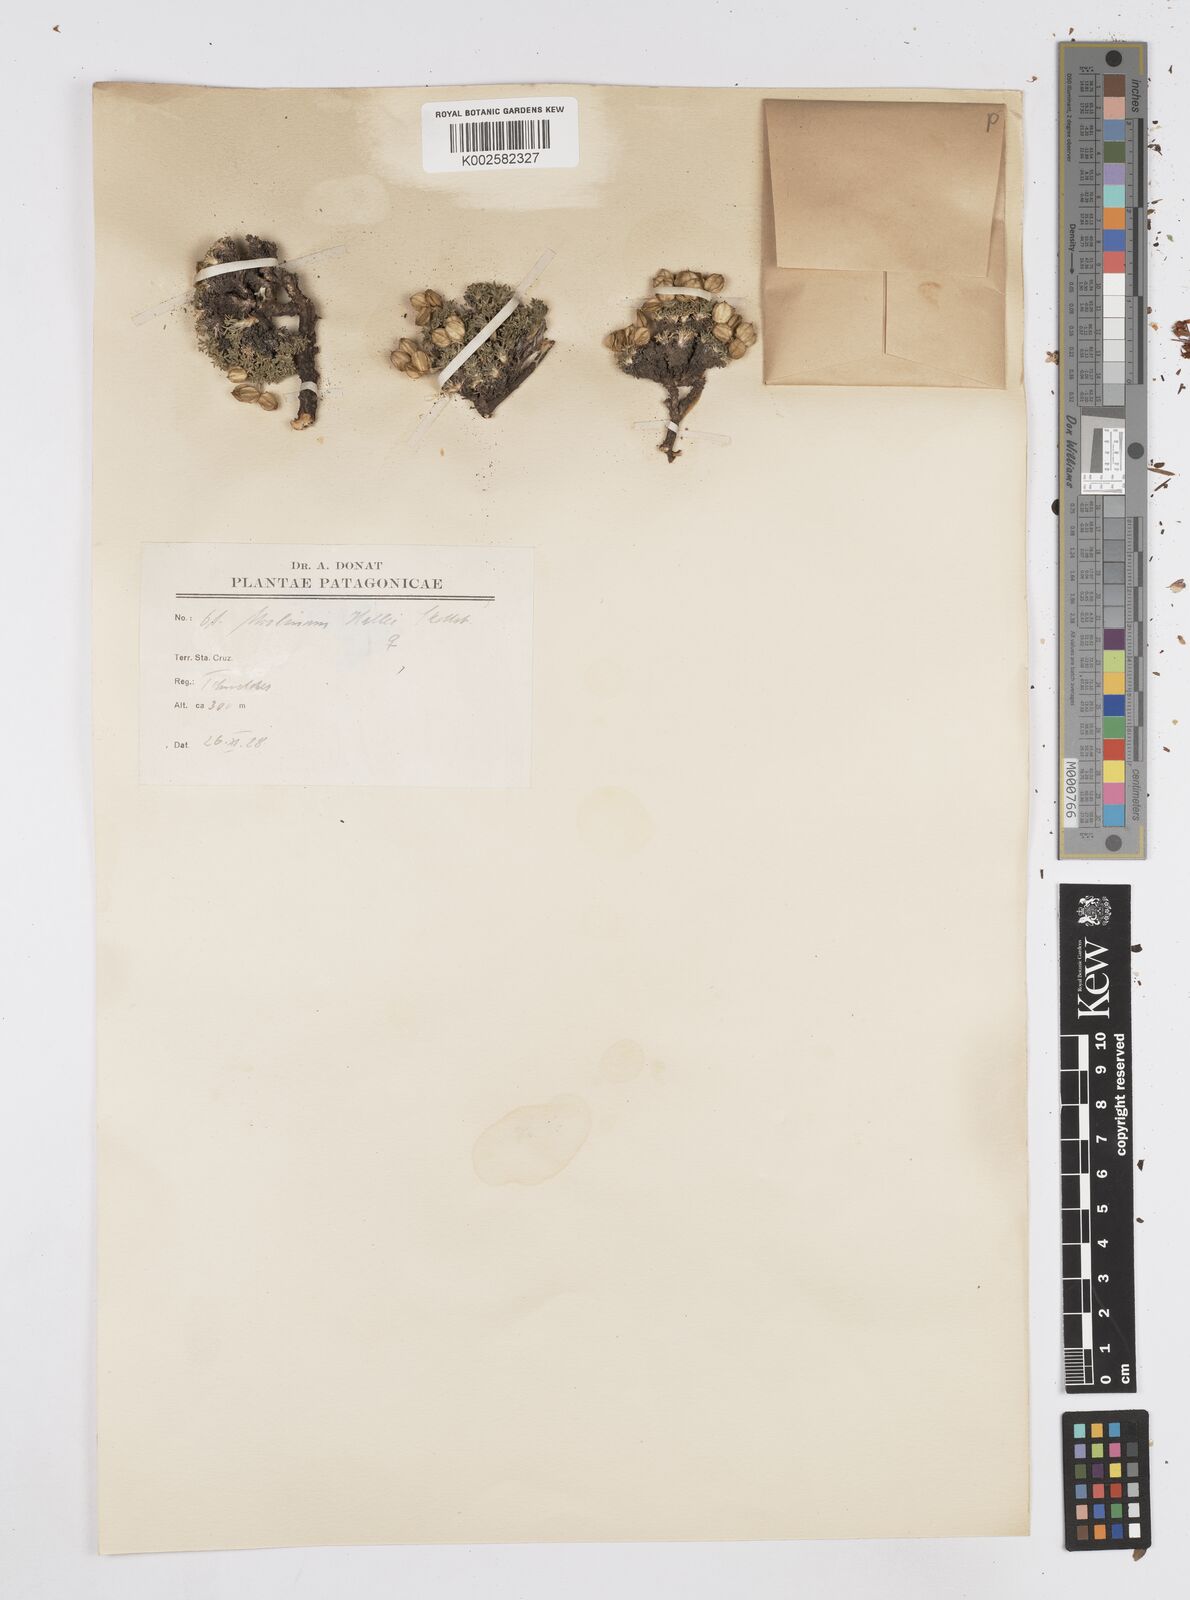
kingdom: Plantae
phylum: Tracheophyta
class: Magnoliopsida
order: Apiales
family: Apiaceae
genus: Azorella
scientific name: Azorella hallei
